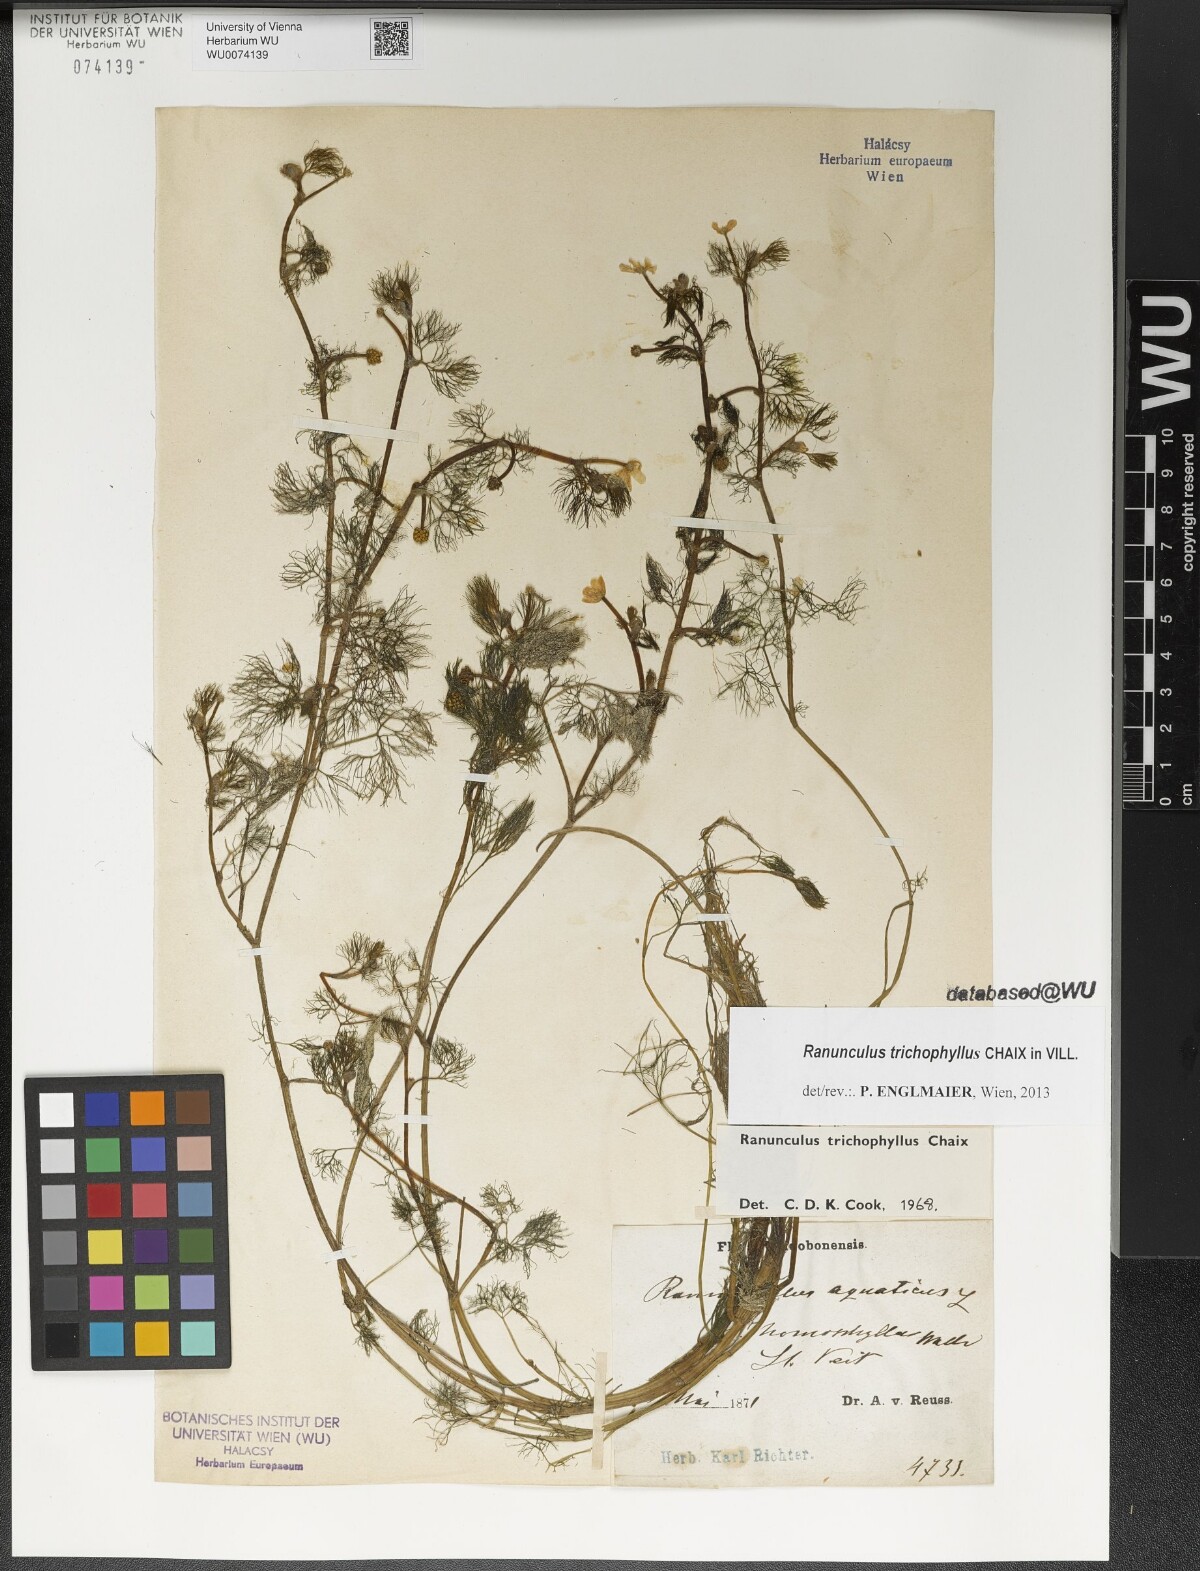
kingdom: Plantae
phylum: Tracheophyta
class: Magnoliopsida
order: Ranunculales
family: Ranunculaceae
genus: Ranunculus
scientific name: Ranunculus trichophyllus
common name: Thread-leaved water-crowfoot
